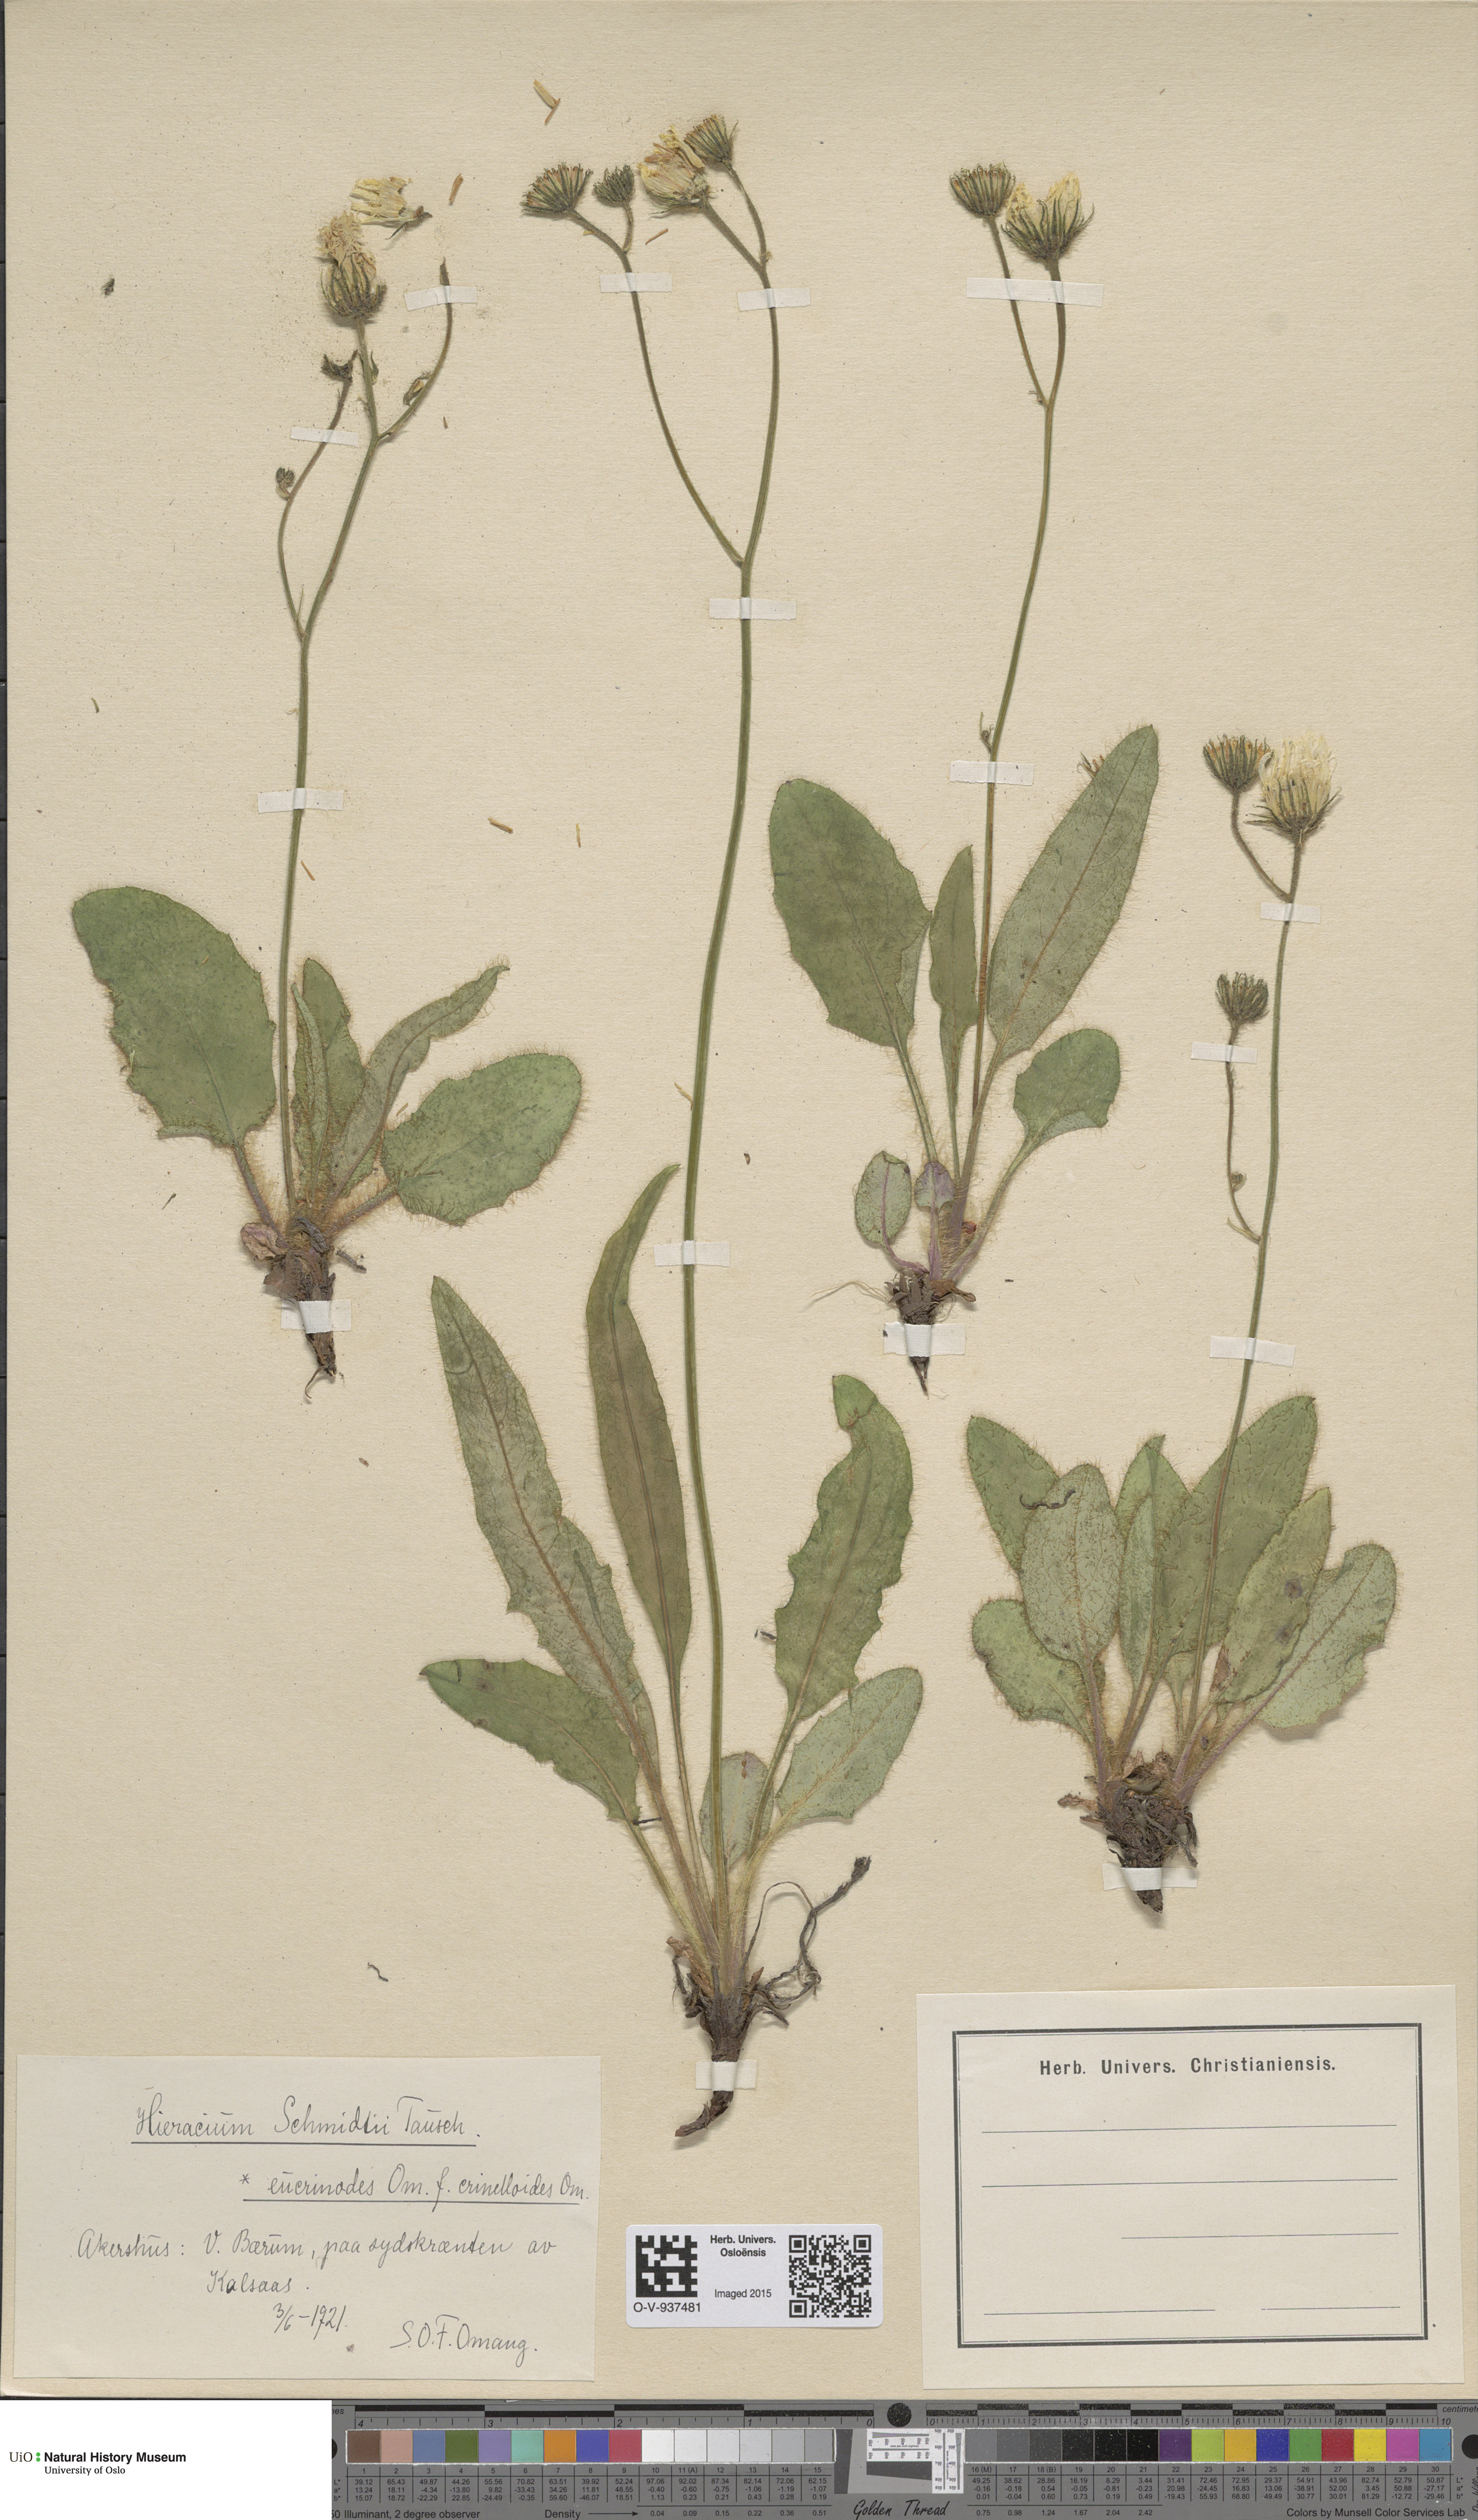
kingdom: Plantae
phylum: Tracheophyta
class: Magnoliopsida
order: Asterales
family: Asteraceae
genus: Hieracium
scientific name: Hieracium schmidtii
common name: Schmidt's hawkweed
